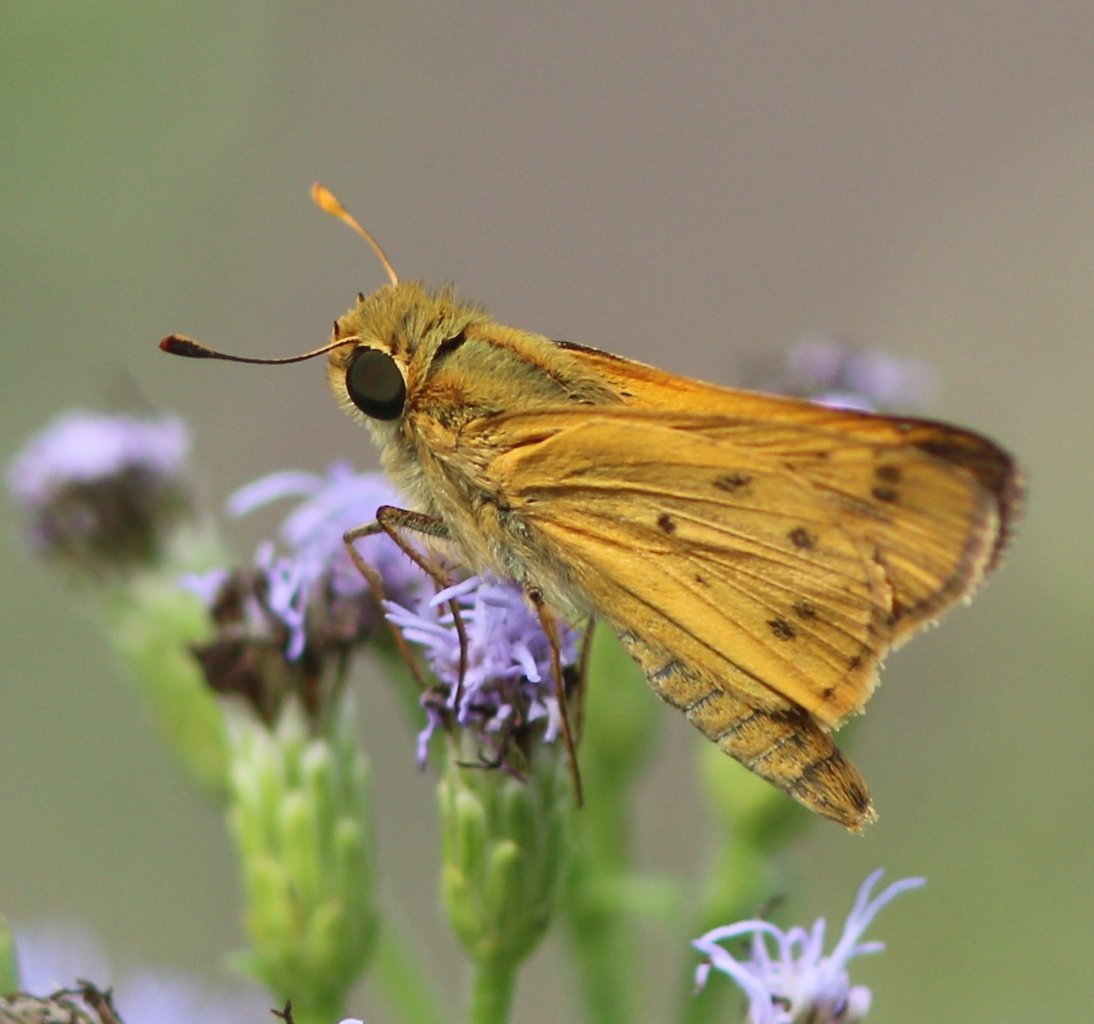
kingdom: Animalia
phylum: Arthropoda
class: Insecta
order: Lepidoptera
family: Hesperiidae
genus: Hylephila
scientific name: Hylephila phyleus
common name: Fiery Skipper
